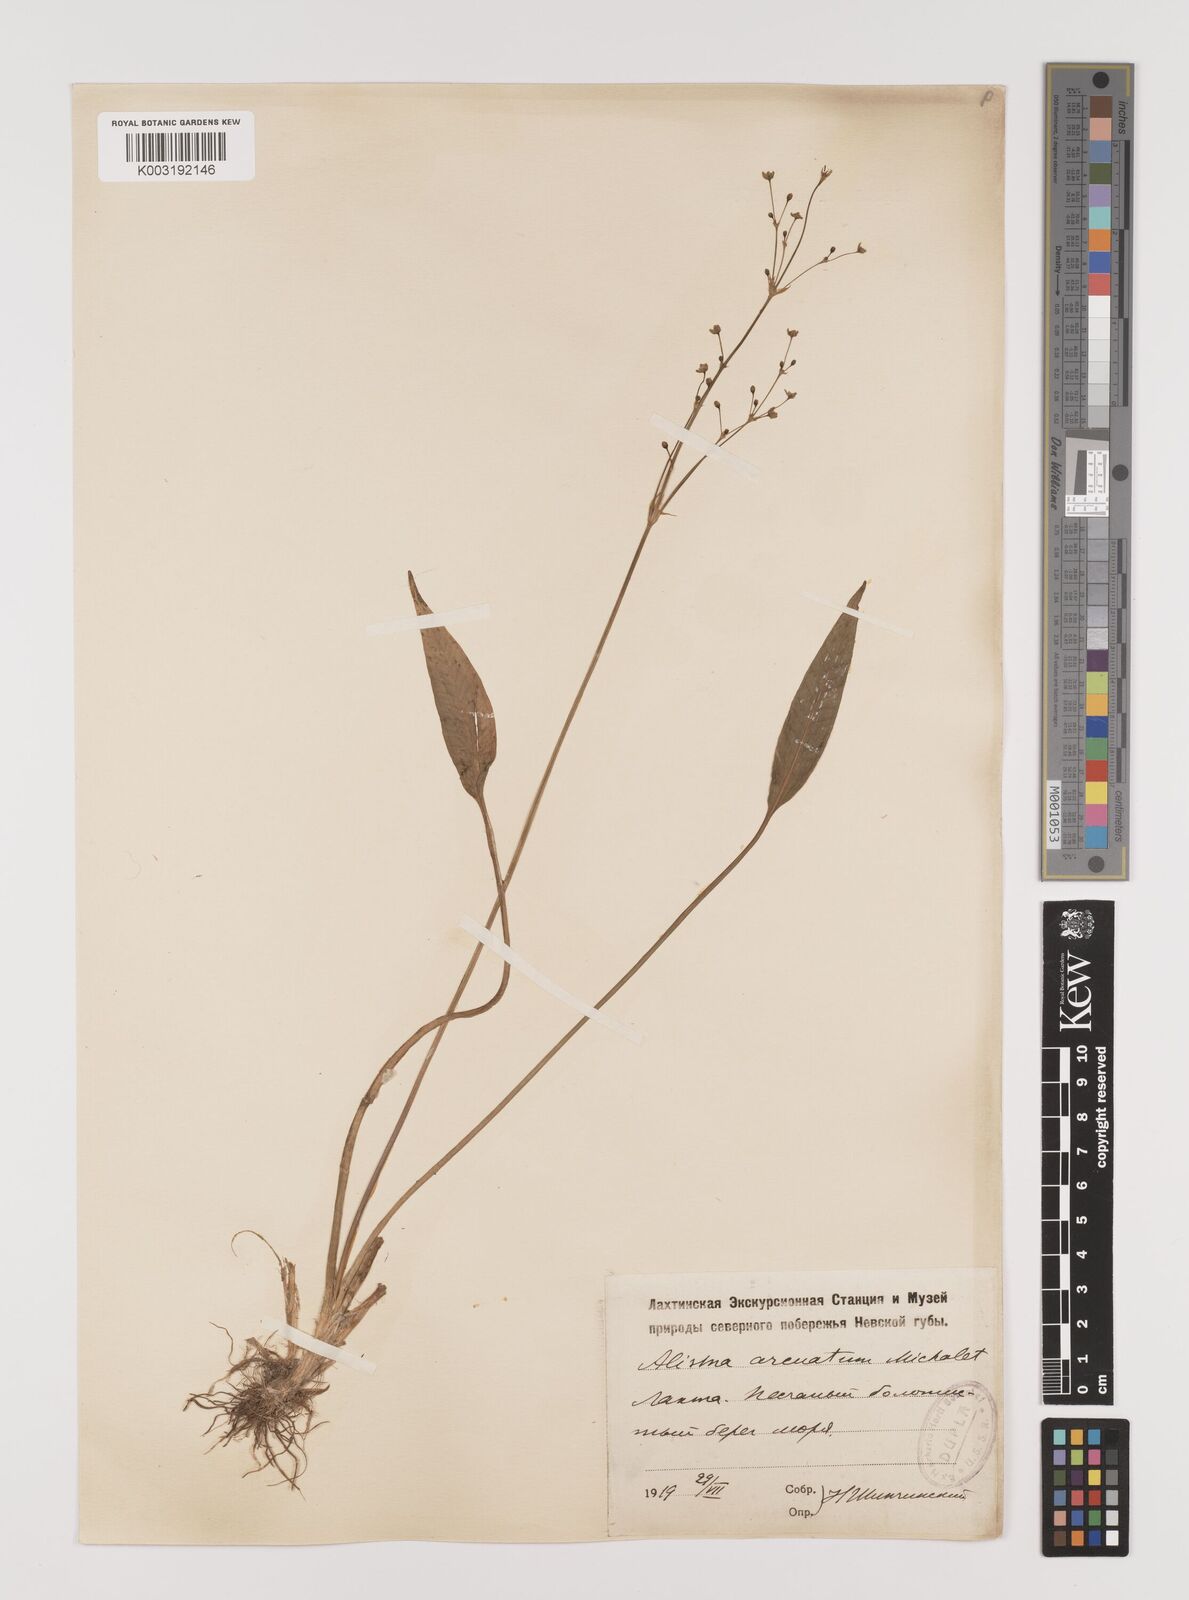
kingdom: Plantae
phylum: Tracheophyta
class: Liliopsida
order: Alismatales
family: Alismataceae
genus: Alisma
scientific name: Alisma lanceolatum
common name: Narrow-leaved water-plantain
